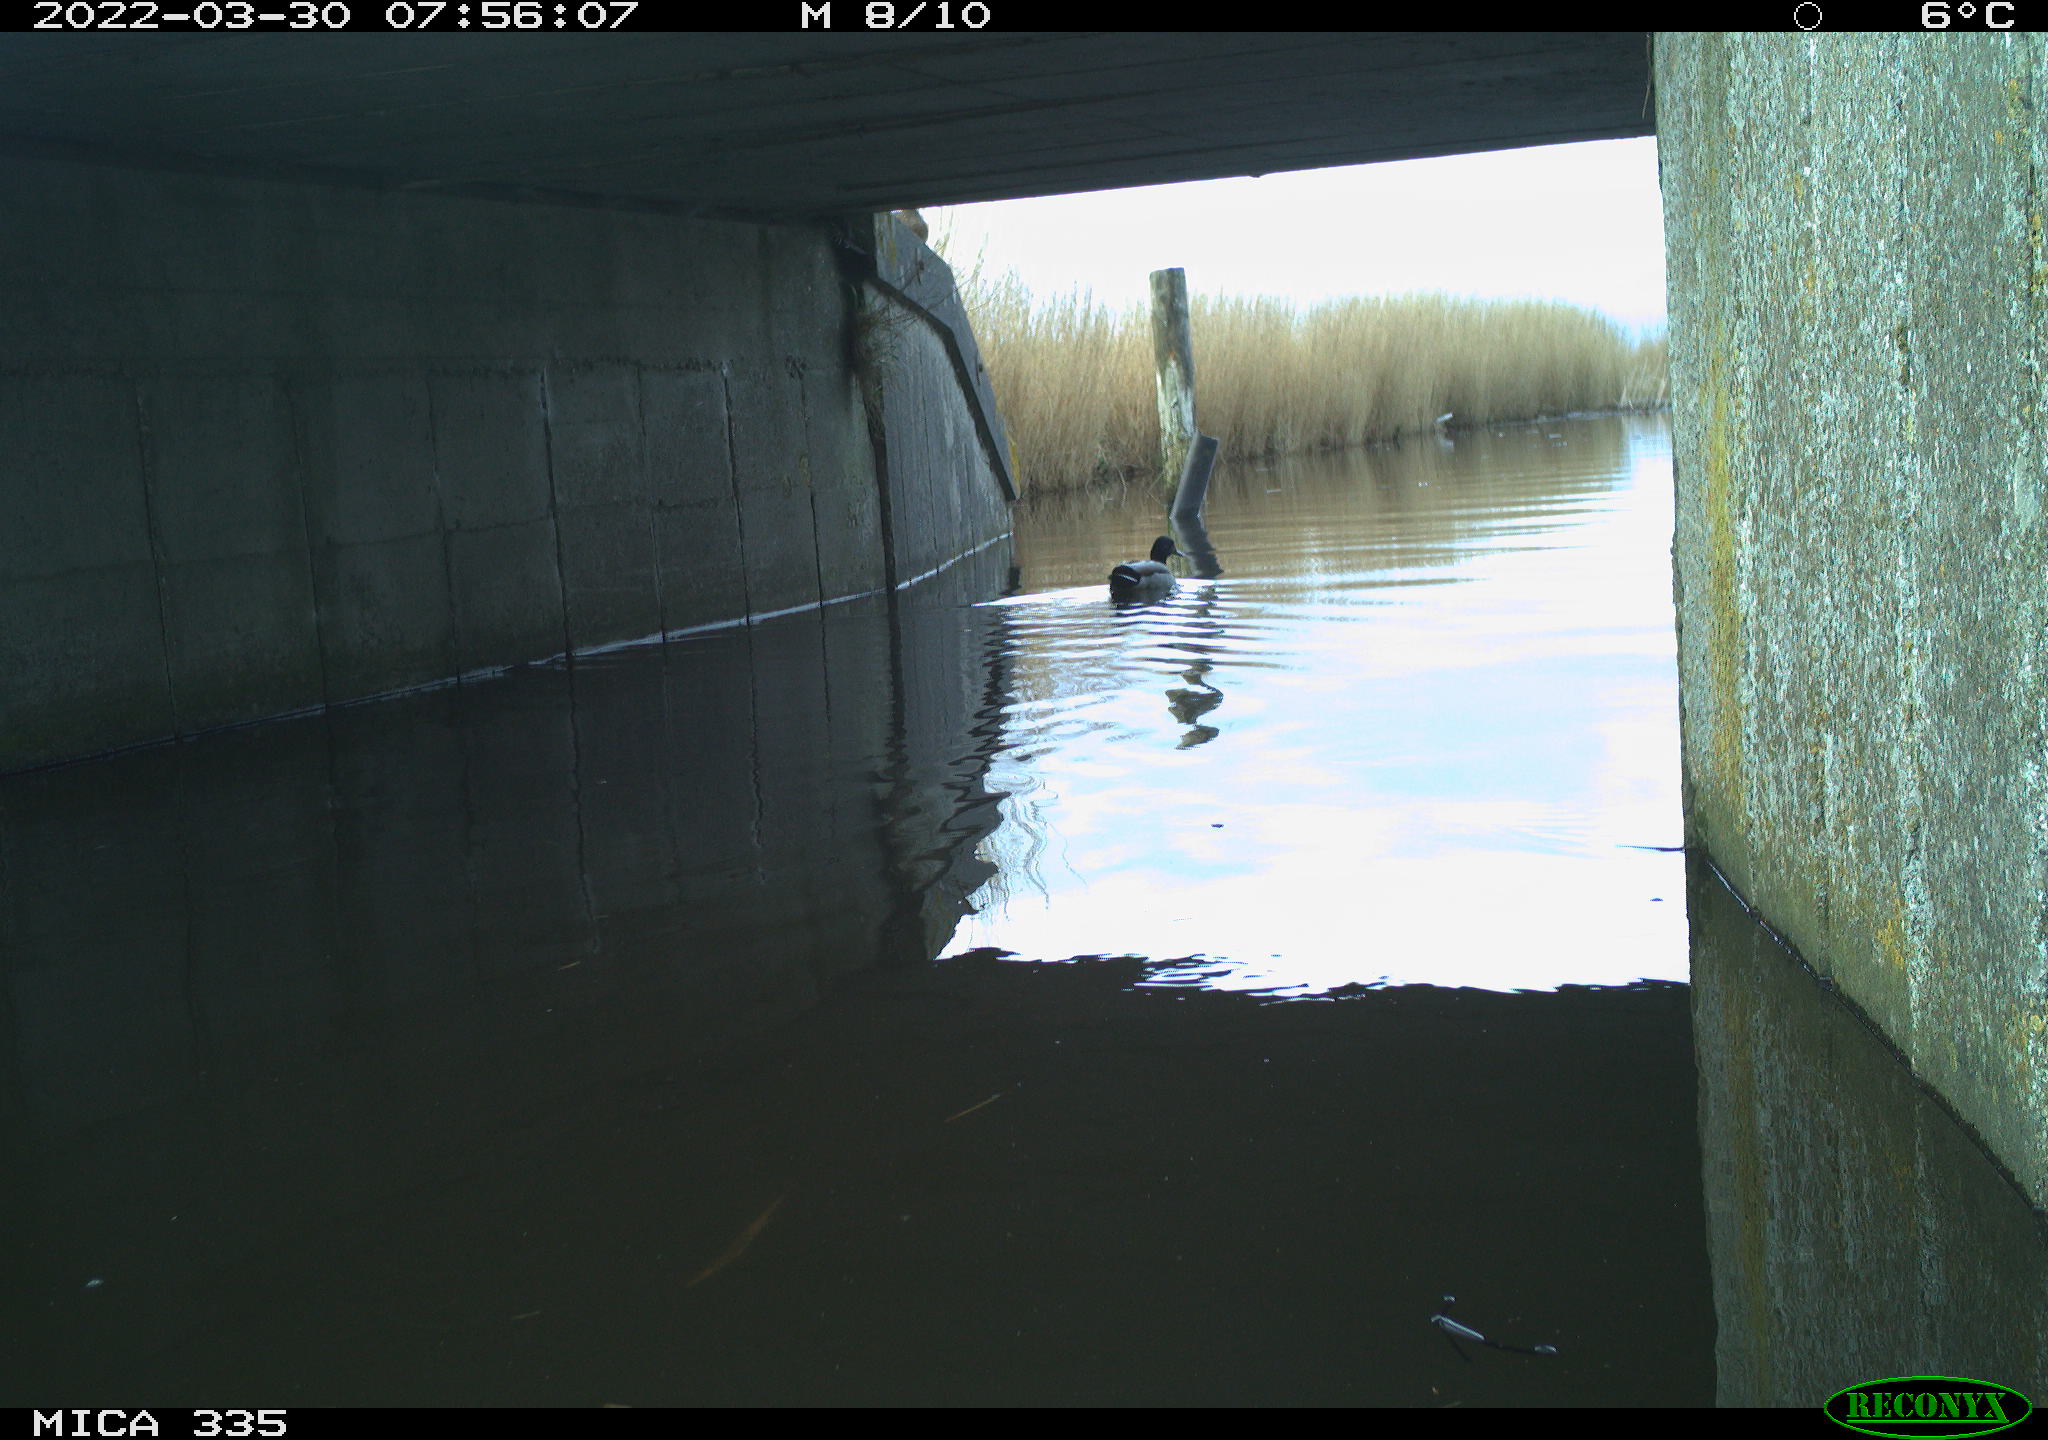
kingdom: Animalia
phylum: Chordata
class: Aves
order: Anseriformes
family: Anatidae
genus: Anas
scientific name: Anas platyrhynchos
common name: Mallard
